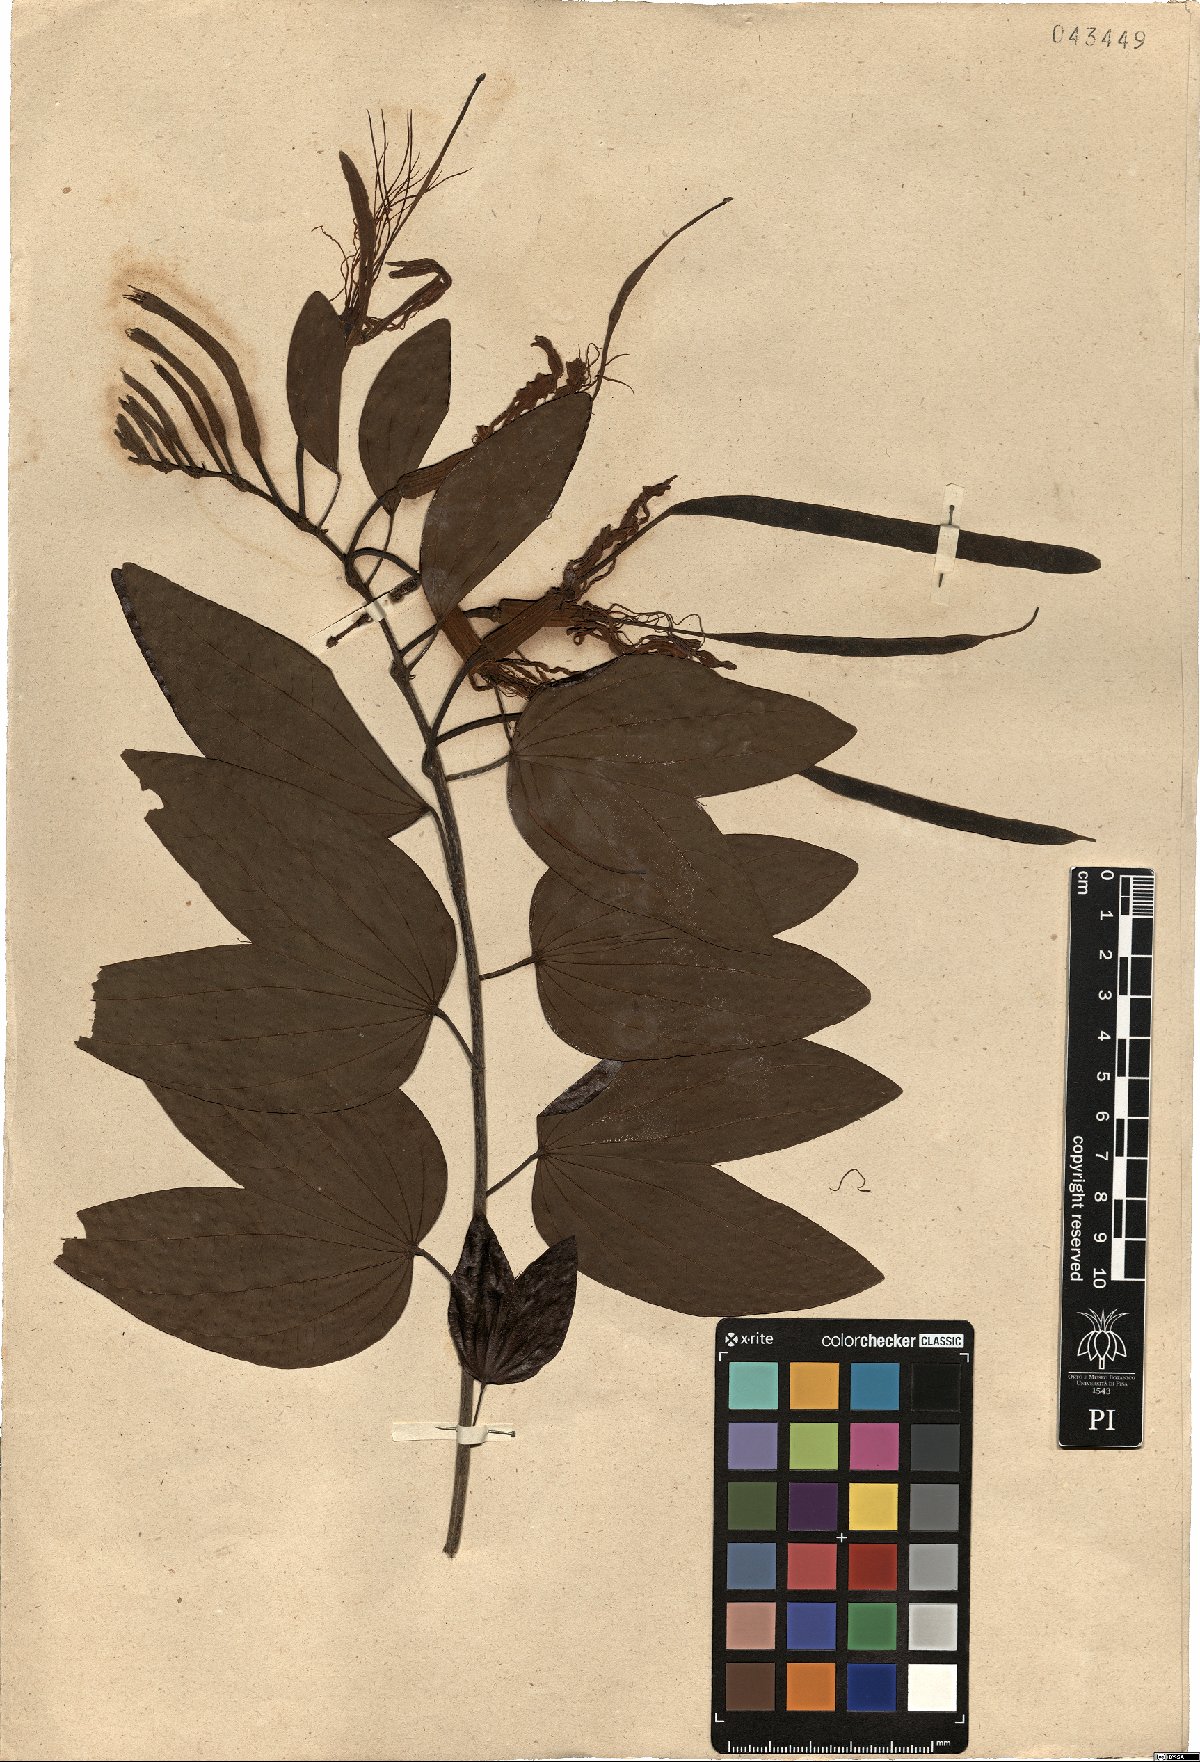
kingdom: Plantae
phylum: Tracheophyta
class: Magnoliopsida
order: Fabales
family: Fabaceae
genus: Bauhinia
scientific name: Bauhinia acuminata
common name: Dwarf white bauhinia
